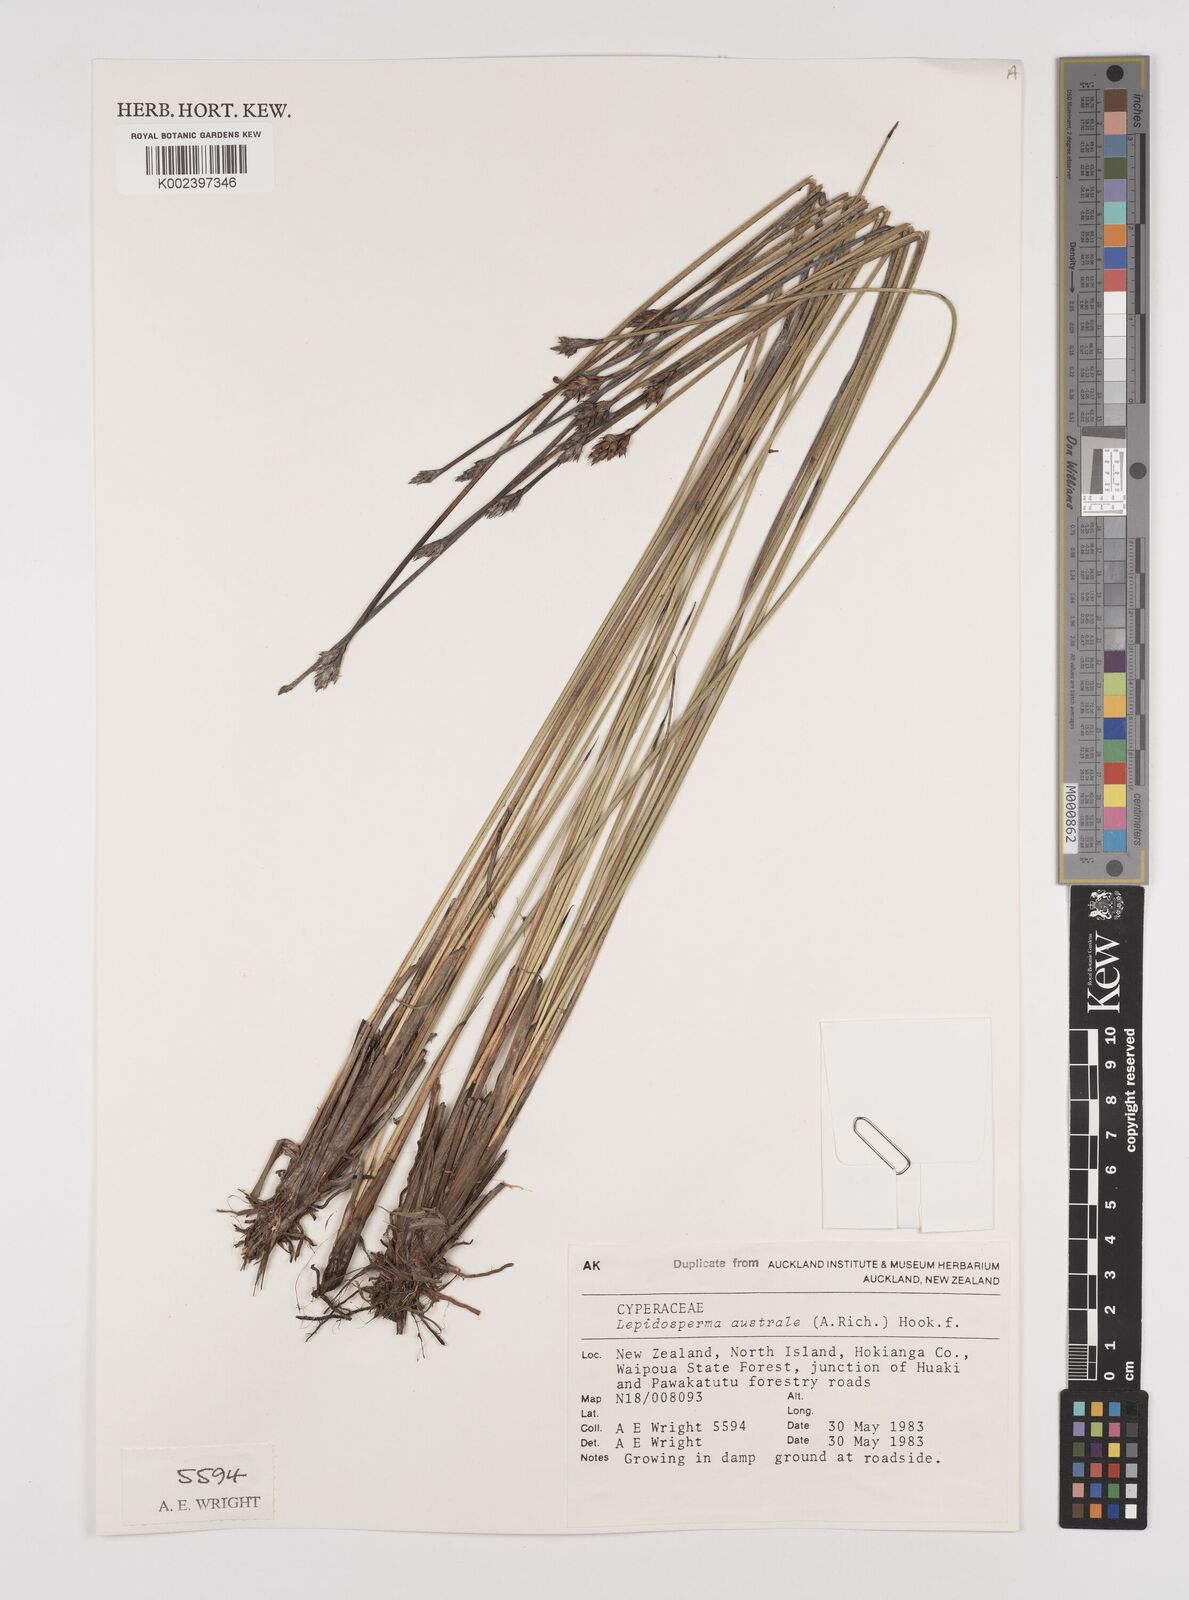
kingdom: Plantae
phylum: Tracheophyta
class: Liliopsida
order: Poales
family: Cyperaceae
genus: Lepidosperma
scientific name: Lepidosperma australe
